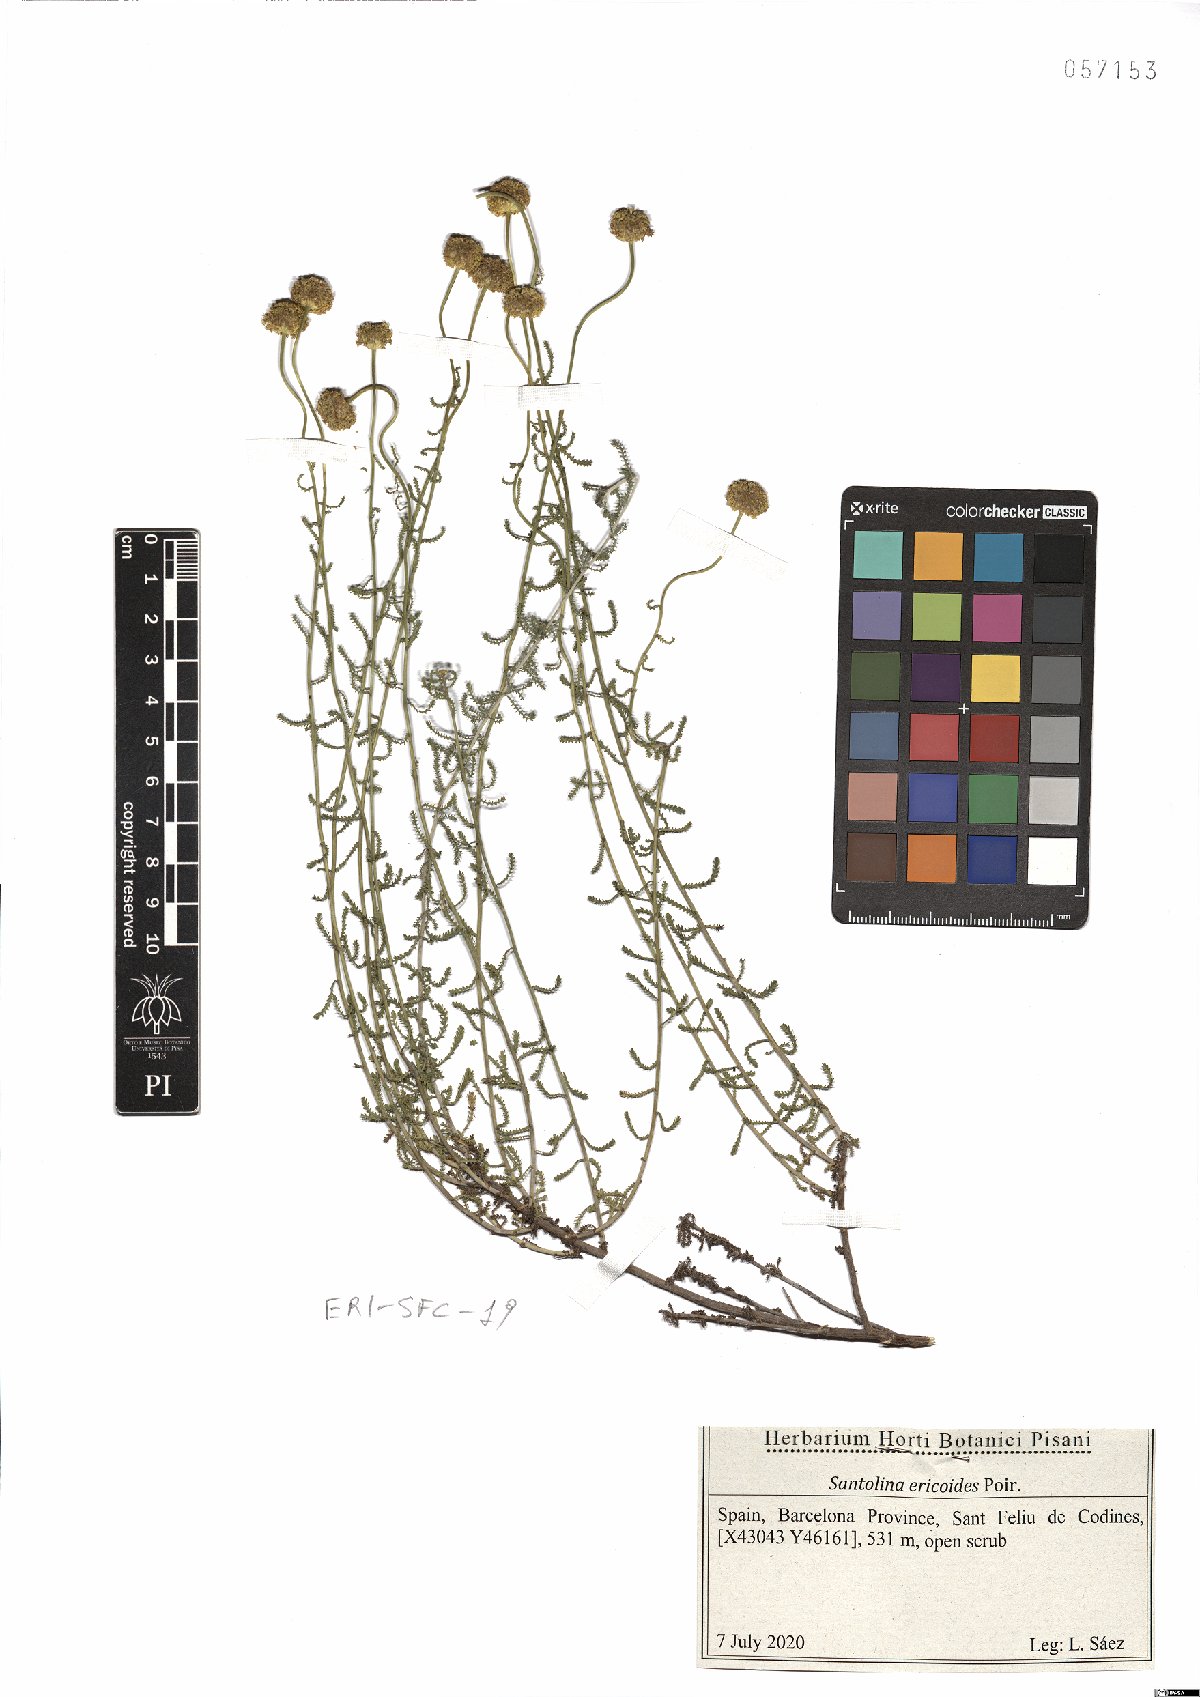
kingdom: Plantae
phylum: Tracheophyta
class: Magnoliopsida
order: Asterales
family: Asteraceae
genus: Santolina
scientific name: Santolina ericoides
